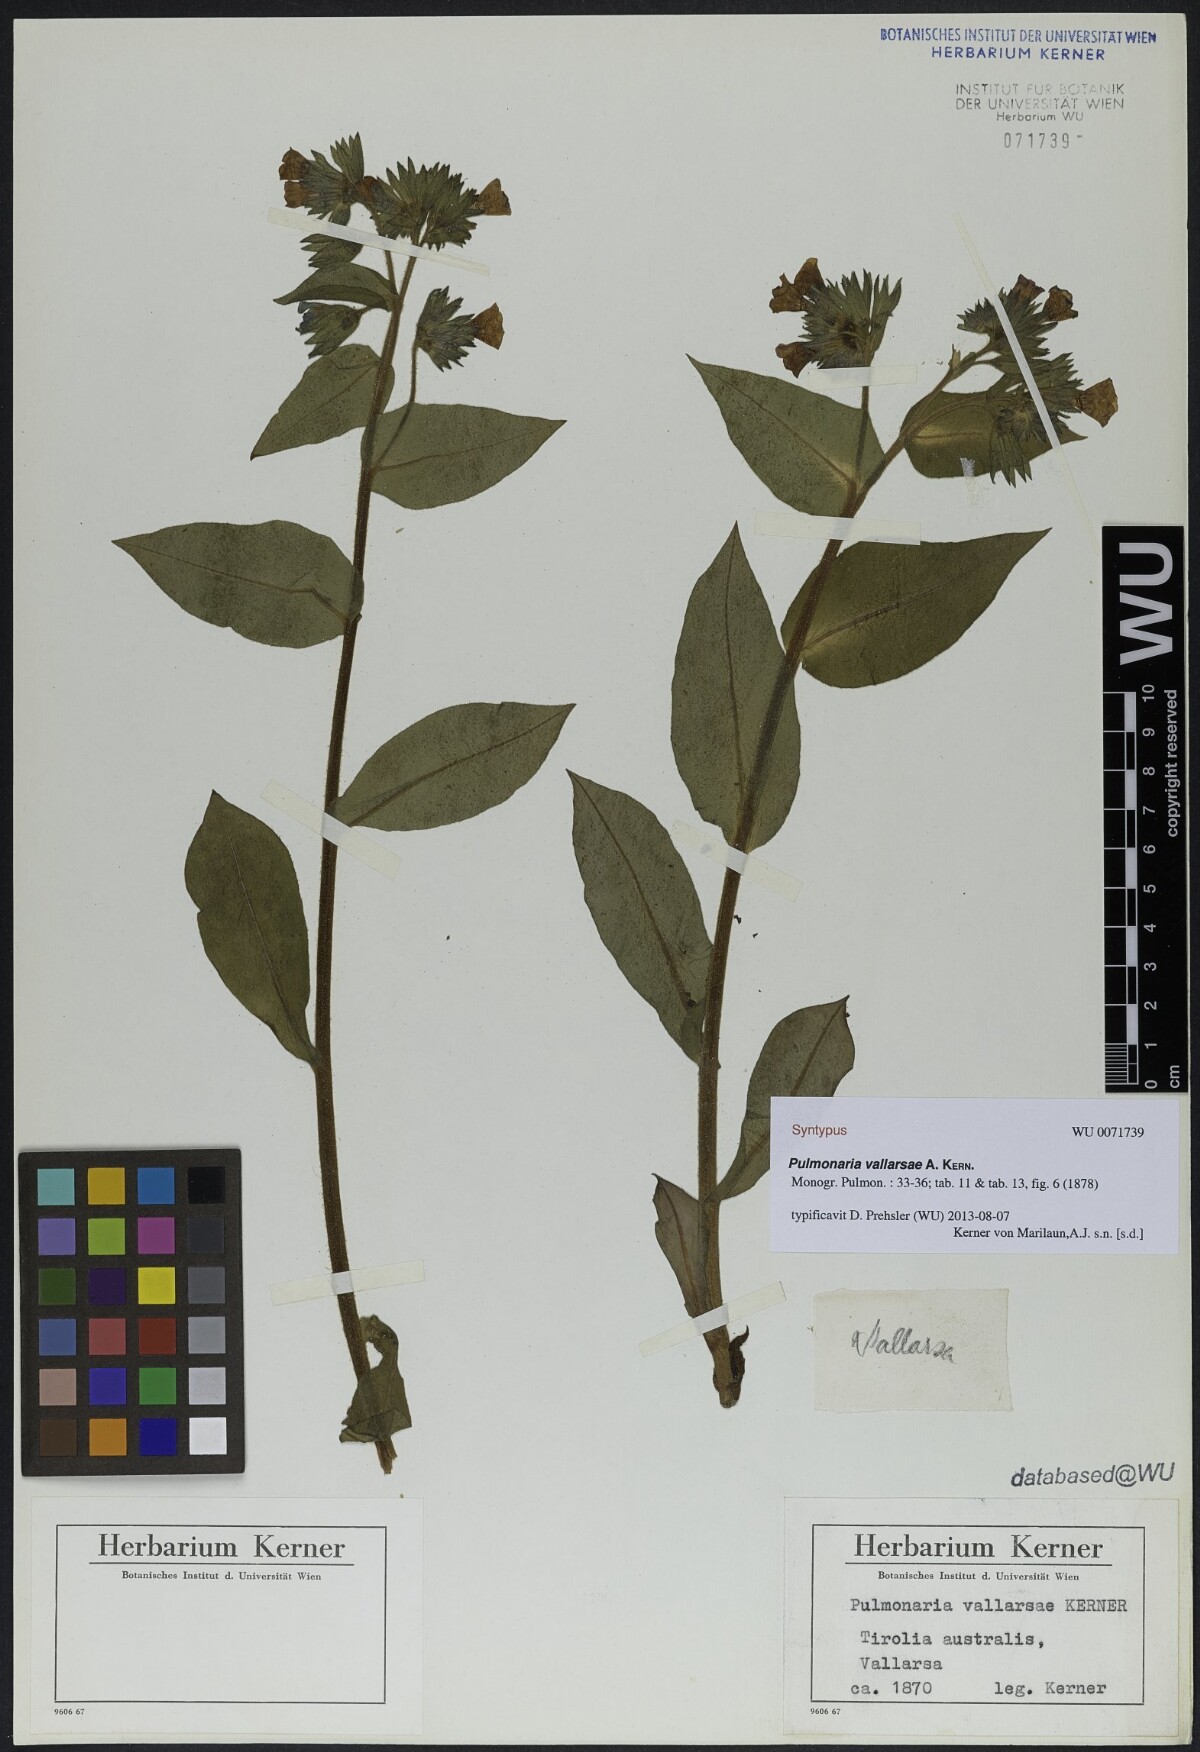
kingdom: Plantae
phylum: Tracheophyta
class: Magnoliopsida
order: Boraginales
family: Boraginaceae
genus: Pulmonaria
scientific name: Pulmonaria hirta
